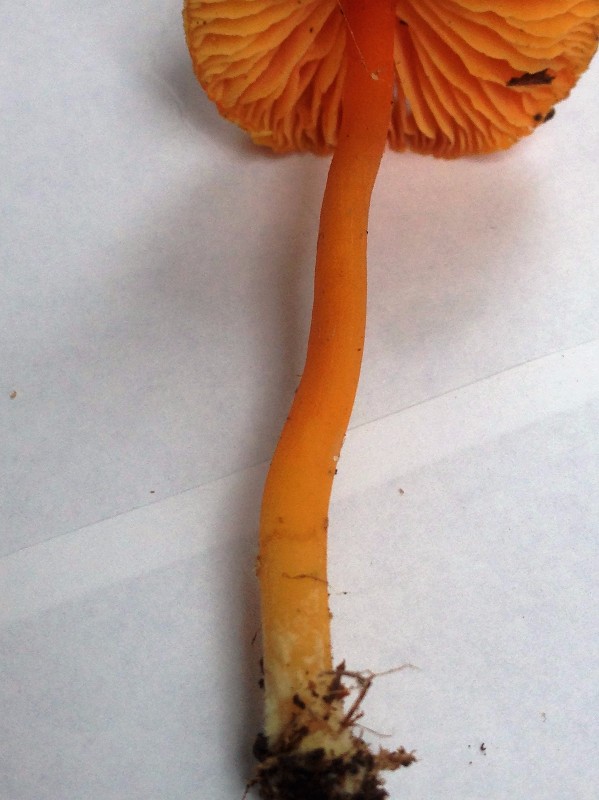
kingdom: Fungi
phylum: Basidiomycota
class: Agaricomycetes
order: Agaricales
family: Hygrophoraceae
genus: Hygrocybe
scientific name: Hygrocybe
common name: vokshat
